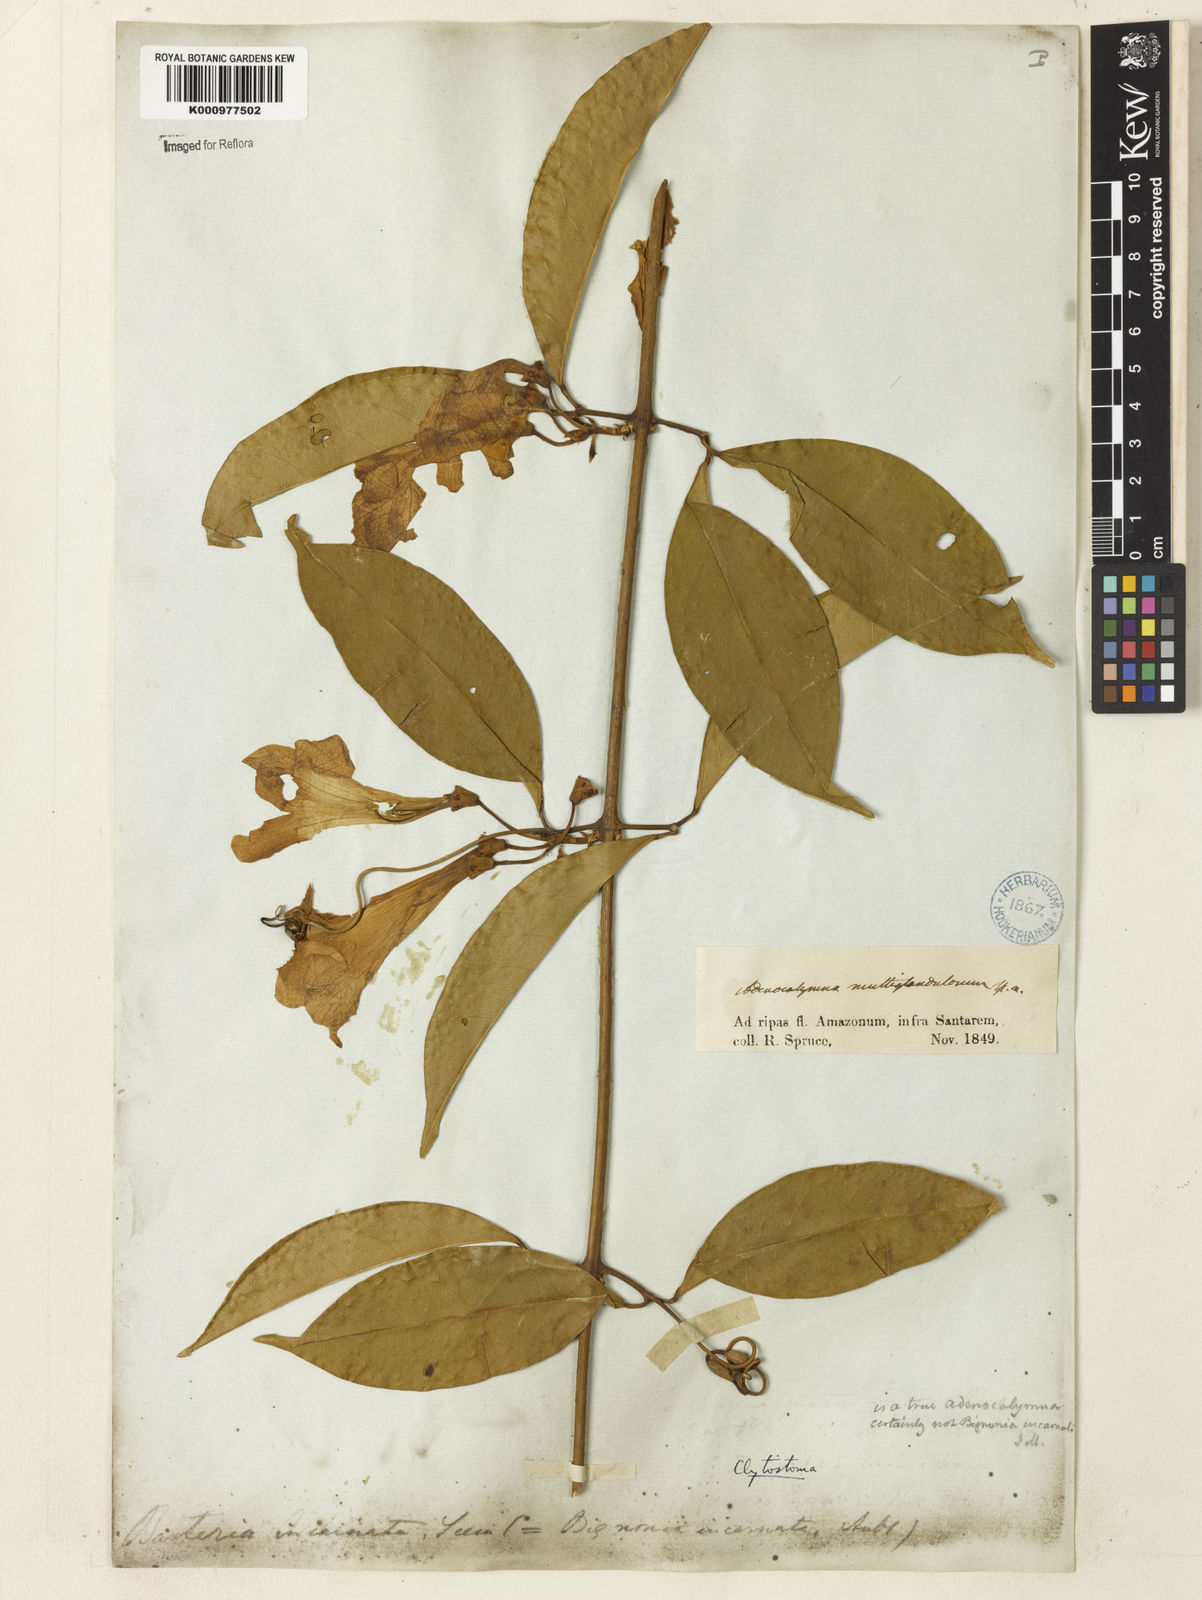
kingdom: Plantae
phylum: Tracheophyta
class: Magnoliopsida
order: Lamiales
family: Bignoniaceae
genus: Bignonia
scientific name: Bignonia binata
